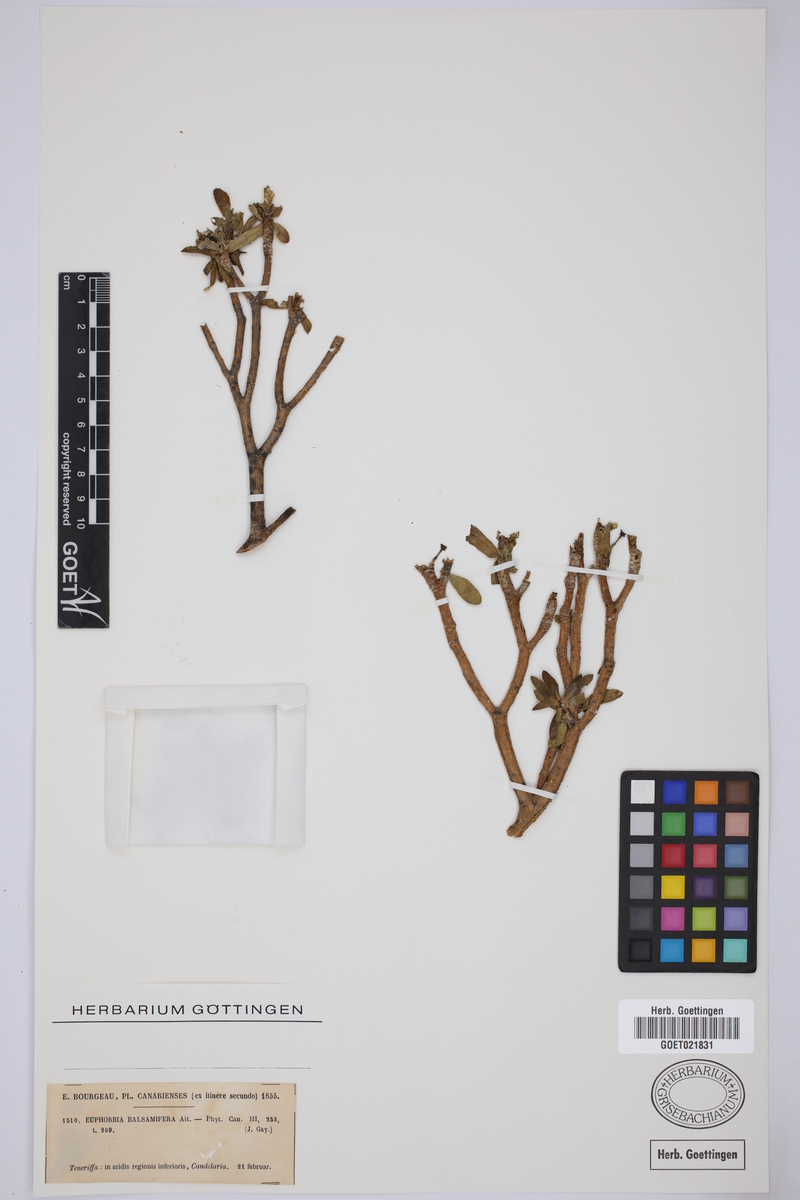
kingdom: Plantae
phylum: Tracheophyta
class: Magnoliopsida
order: Malpighiales
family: Euphorbiaceae
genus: Euphorbia
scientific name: Euphorbia balsamifera
